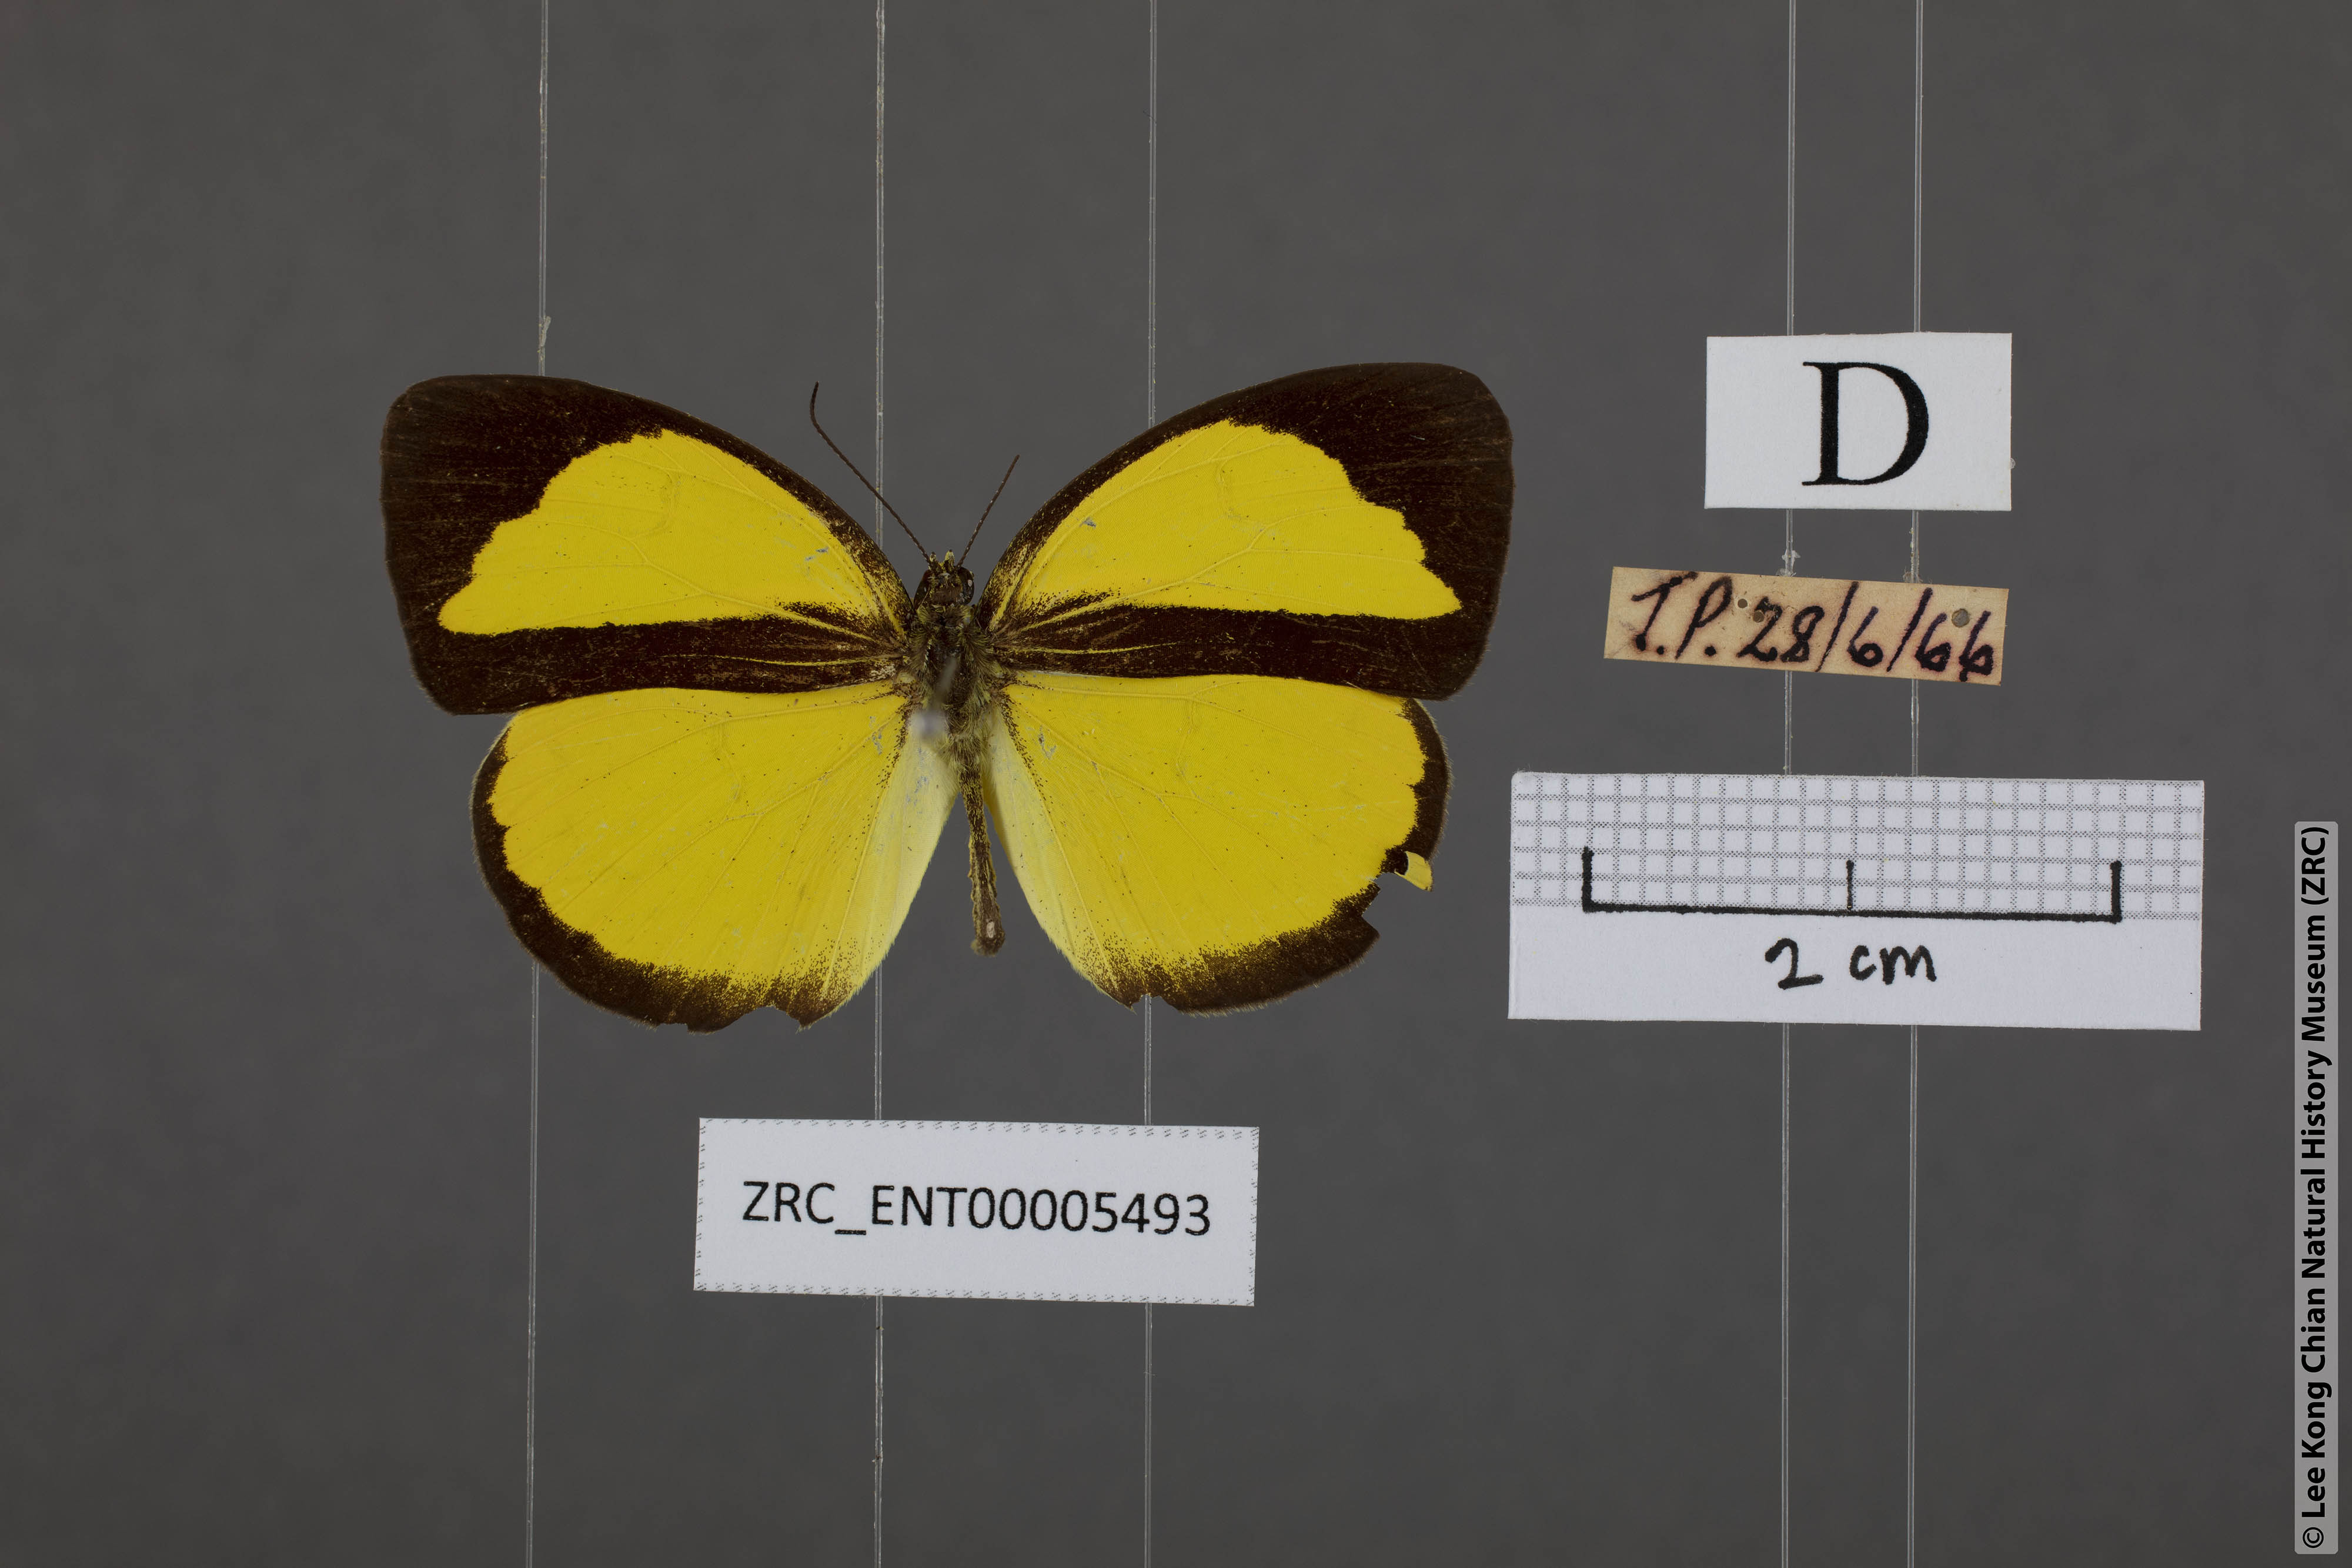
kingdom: Animalia
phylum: Arthropoda
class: Insecta
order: Lepidoptera
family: Pieridae
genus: Eurema
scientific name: Eurema nicevillei
